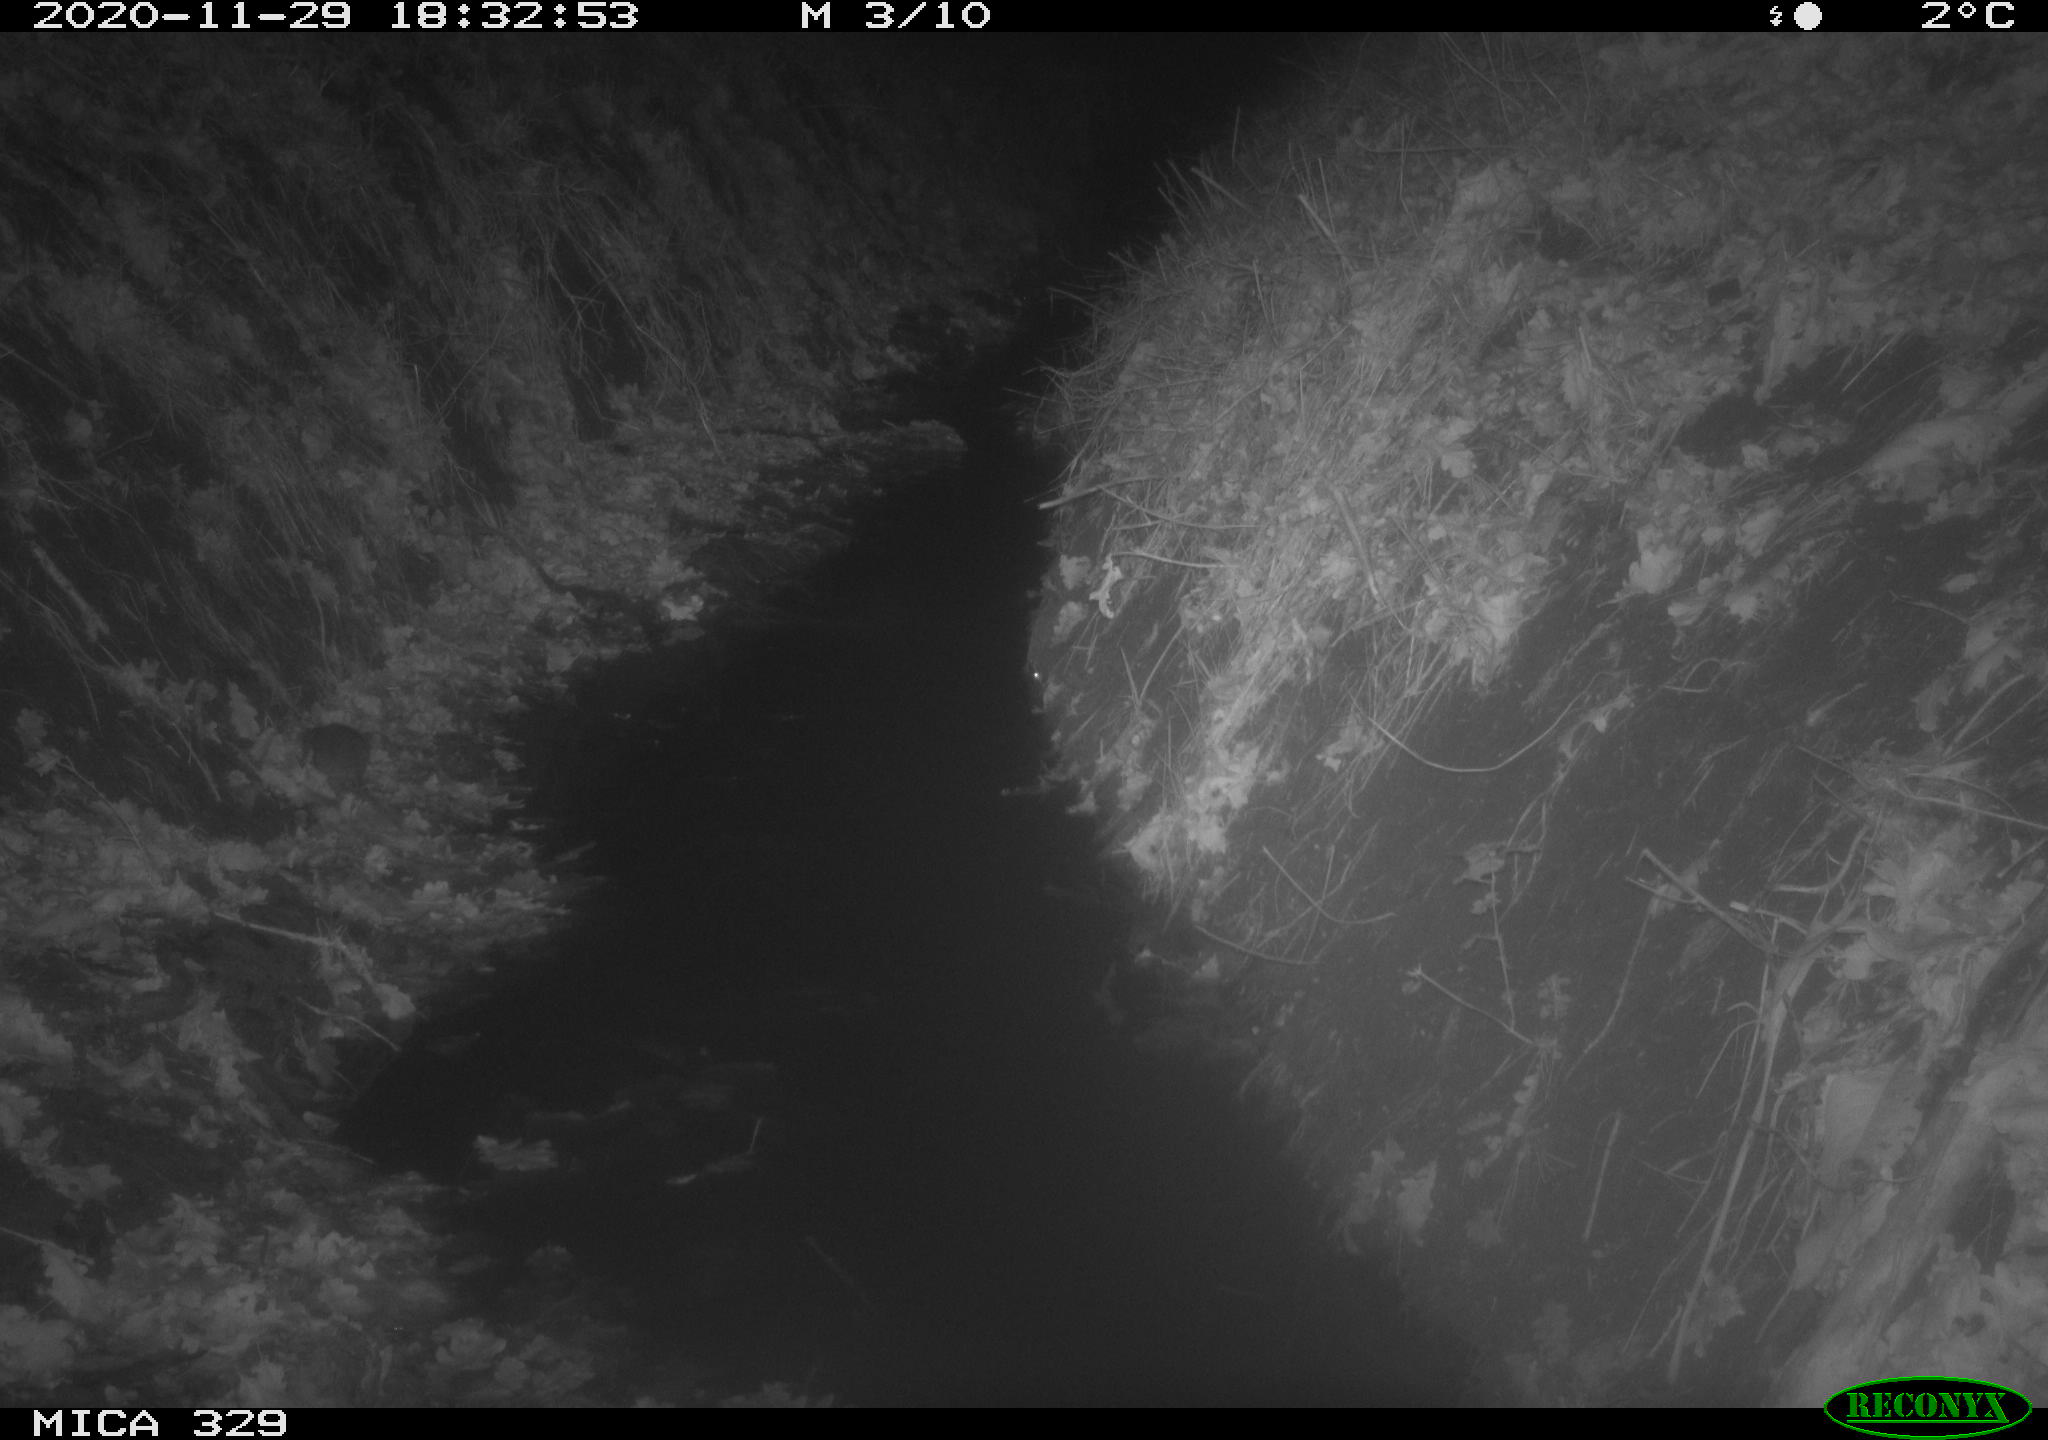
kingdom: Animalia
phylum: Chordata
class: Mammalia
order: Rodentia
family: Muridae
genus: Rattus
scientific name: Rattus norvegicus
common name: Brown rat
